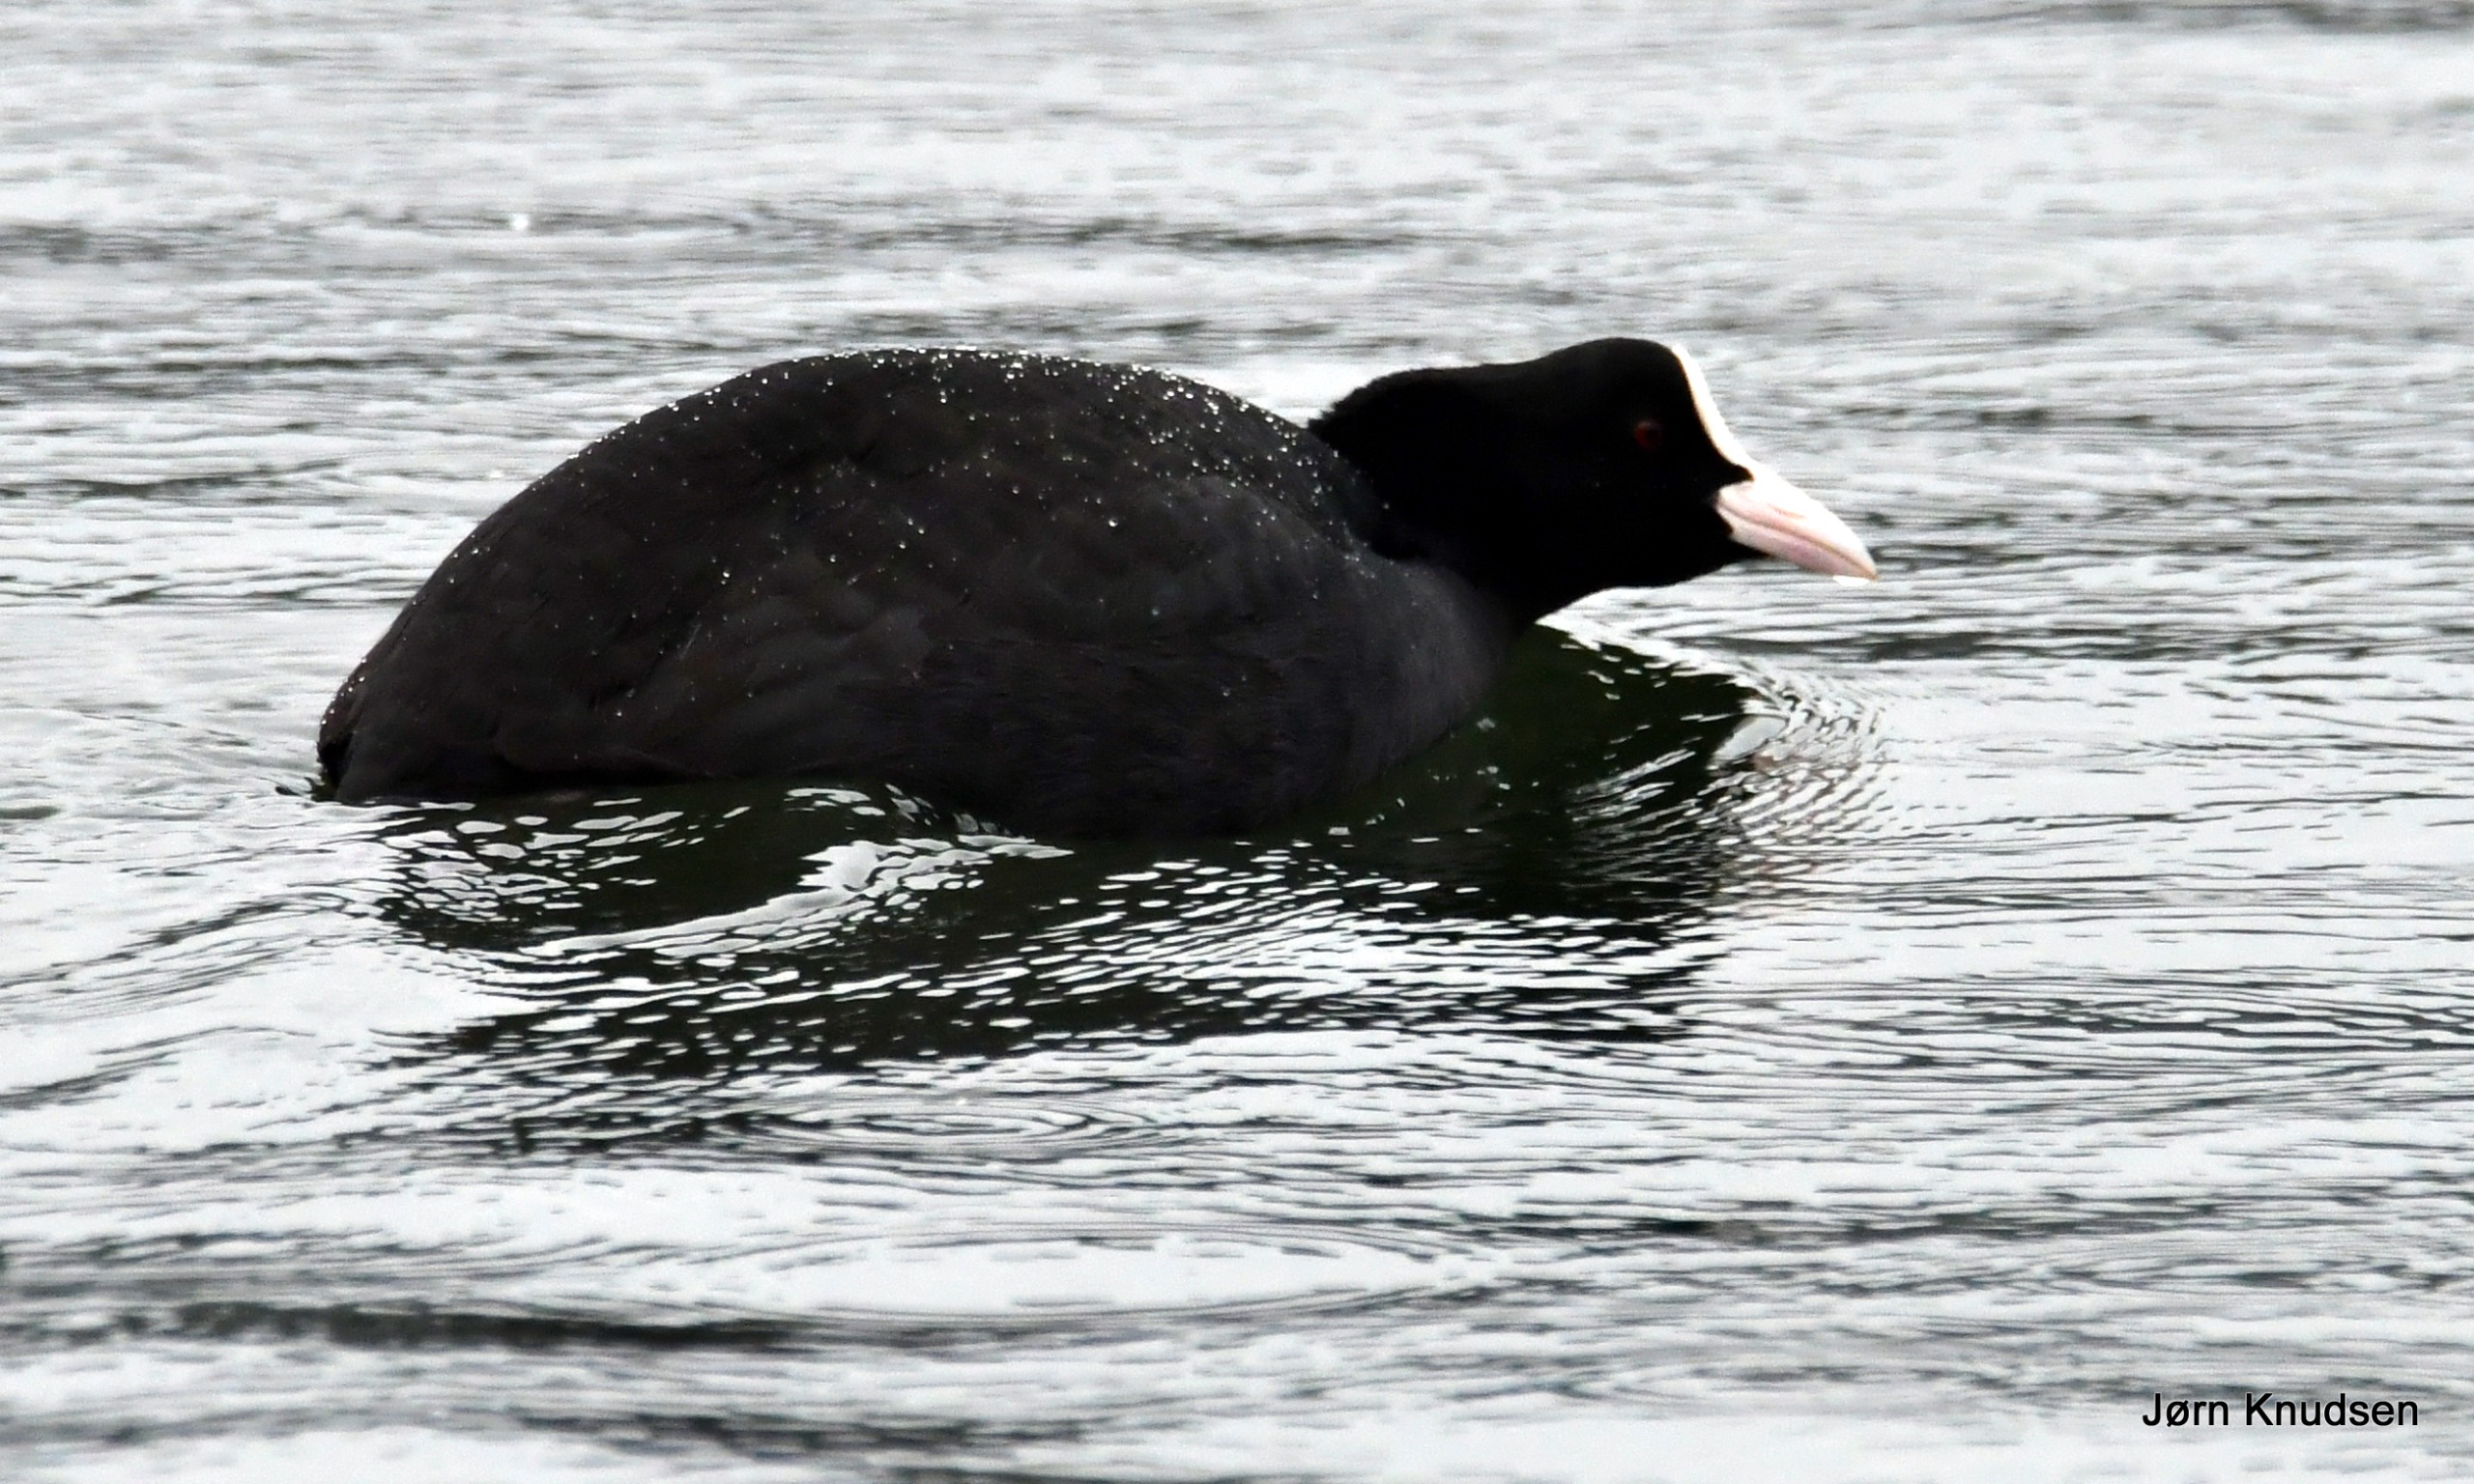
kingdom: Animalia
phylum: Chordata
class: Aves
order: Gruiformes
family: Rallidae
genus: Fulica
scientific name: Fulica atra
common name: Blishøne
